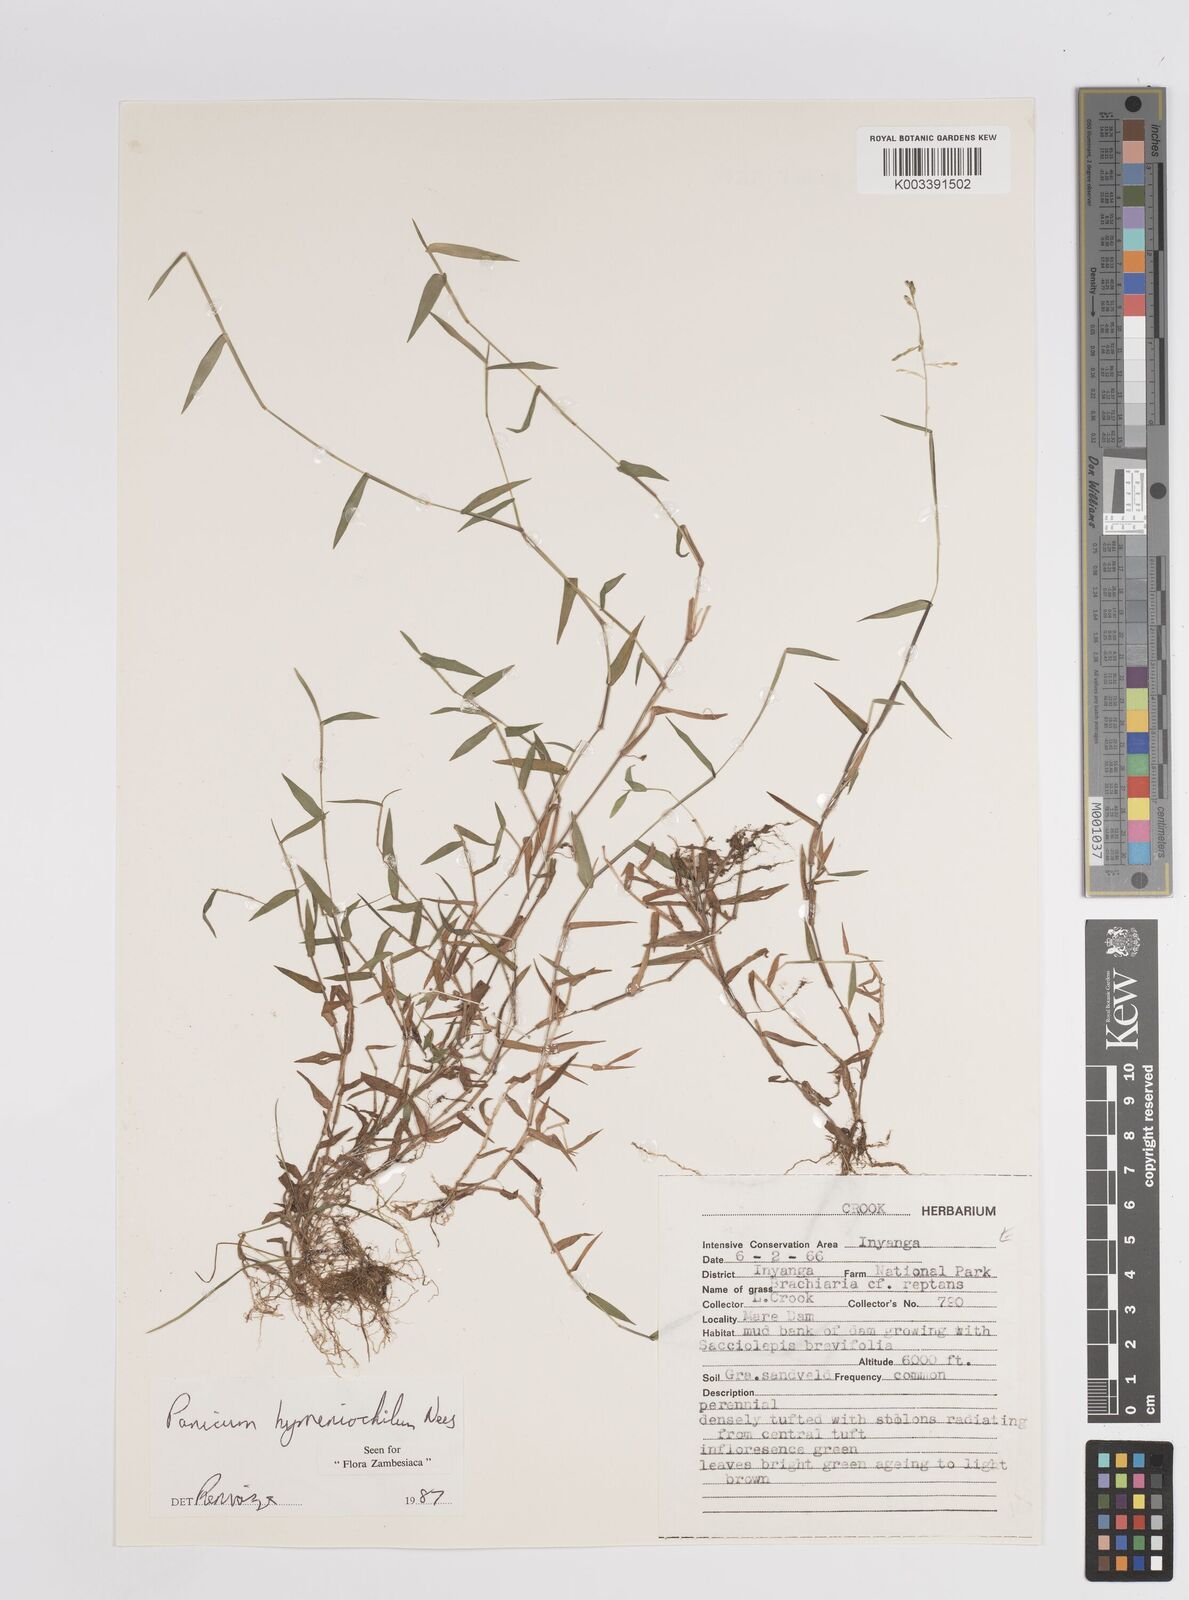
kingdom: Plantae
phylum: Tracheophyta
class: Liliopsida
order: Poales
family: Poaceae
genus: Adenochloa
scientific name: Adenochloa hymeniochila
